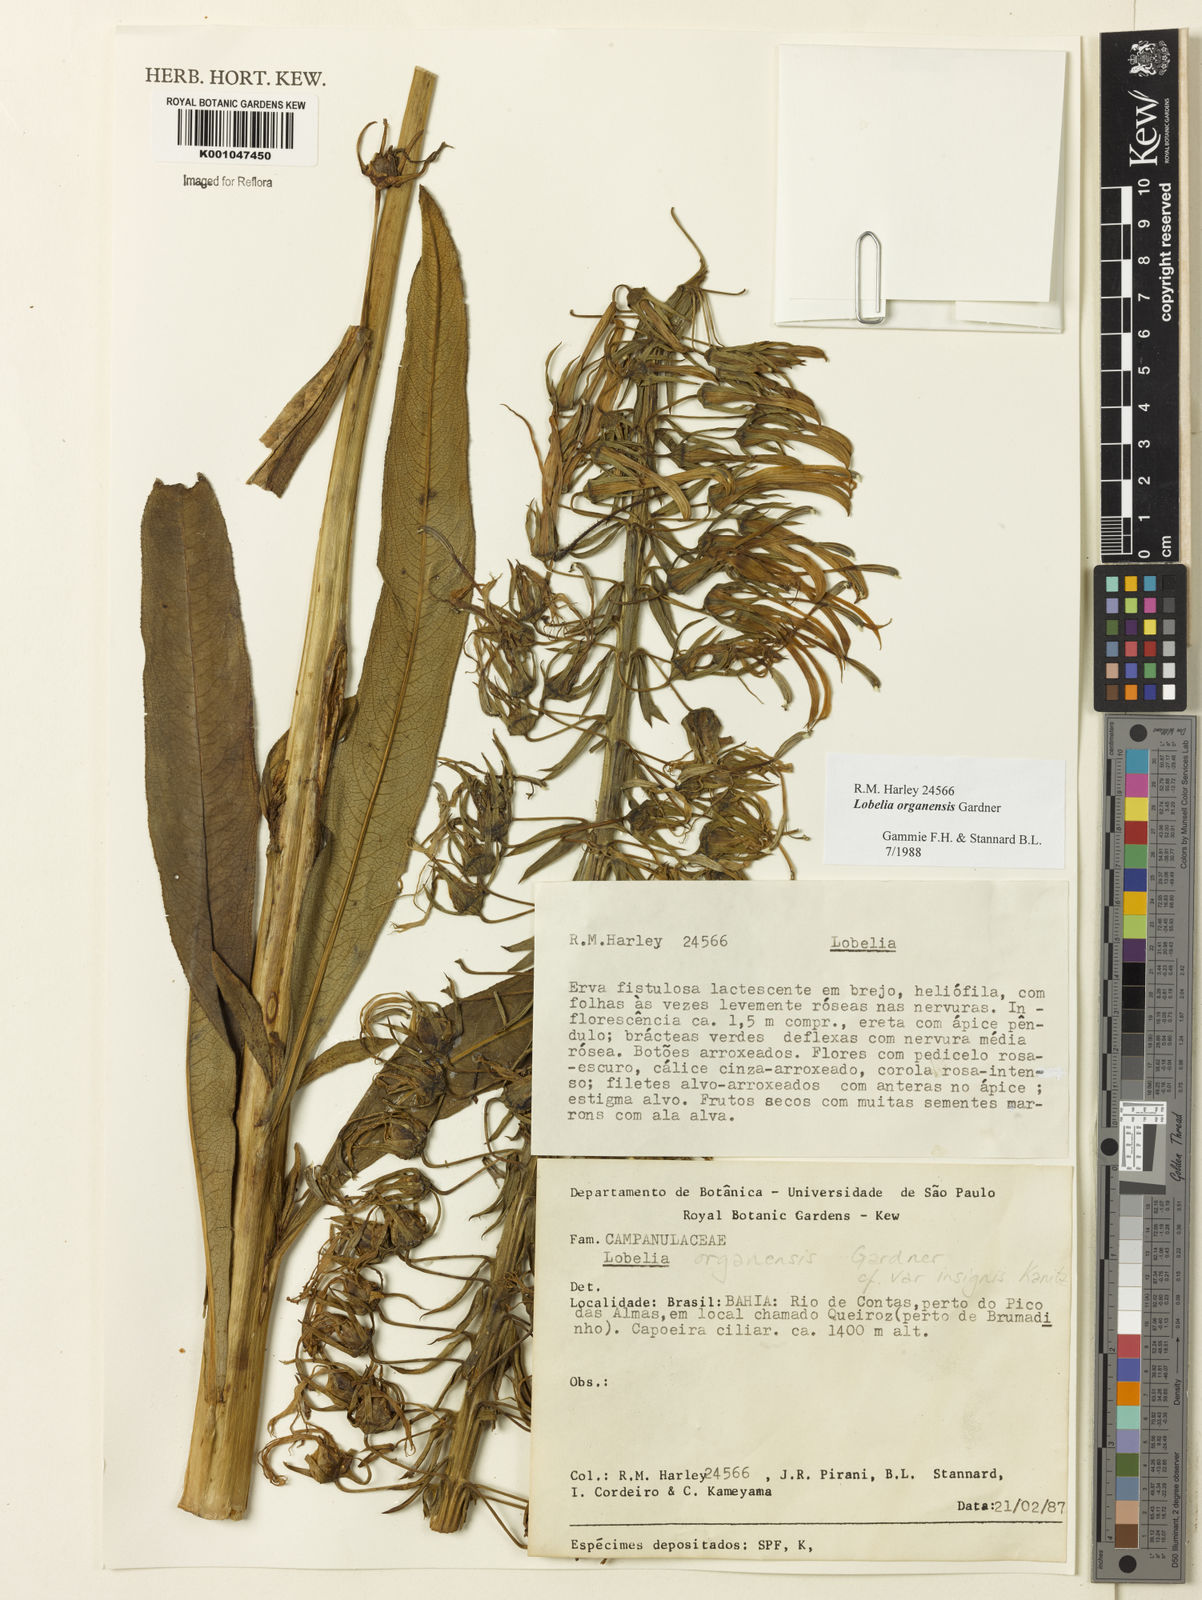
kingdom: Plantae
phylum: Tracheophyta
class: Magnoliopsida
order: Asterales
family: Campanulaceae
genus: Lobelia
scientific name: Lobelia organensis
